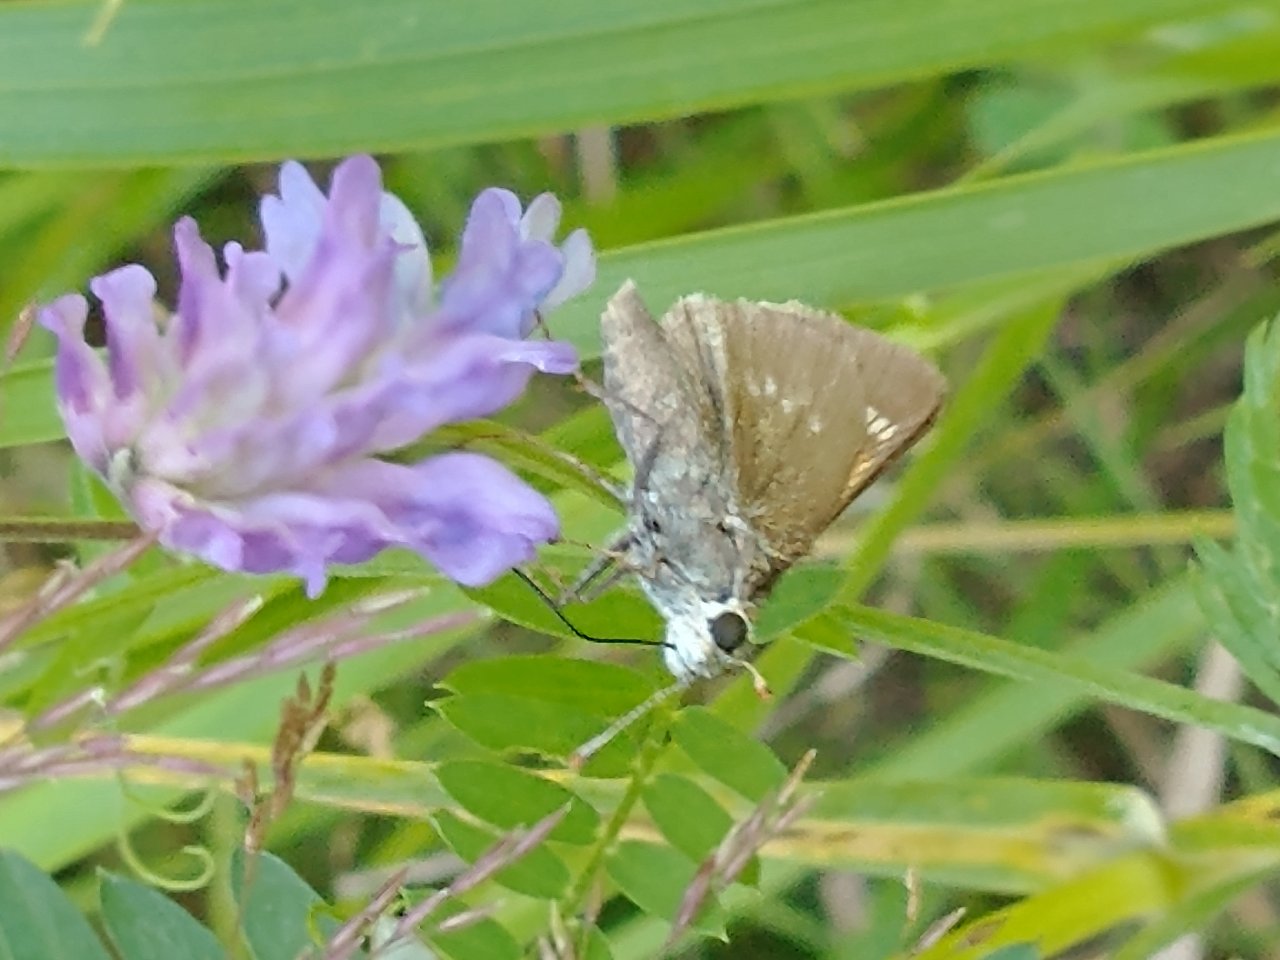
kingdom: Animalia
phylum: Arthropoda
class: Insecta
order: Lepidoptera
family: Hesperiidae
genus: Polites
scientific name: Polites egeremet
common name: Northern Broken-Dash
